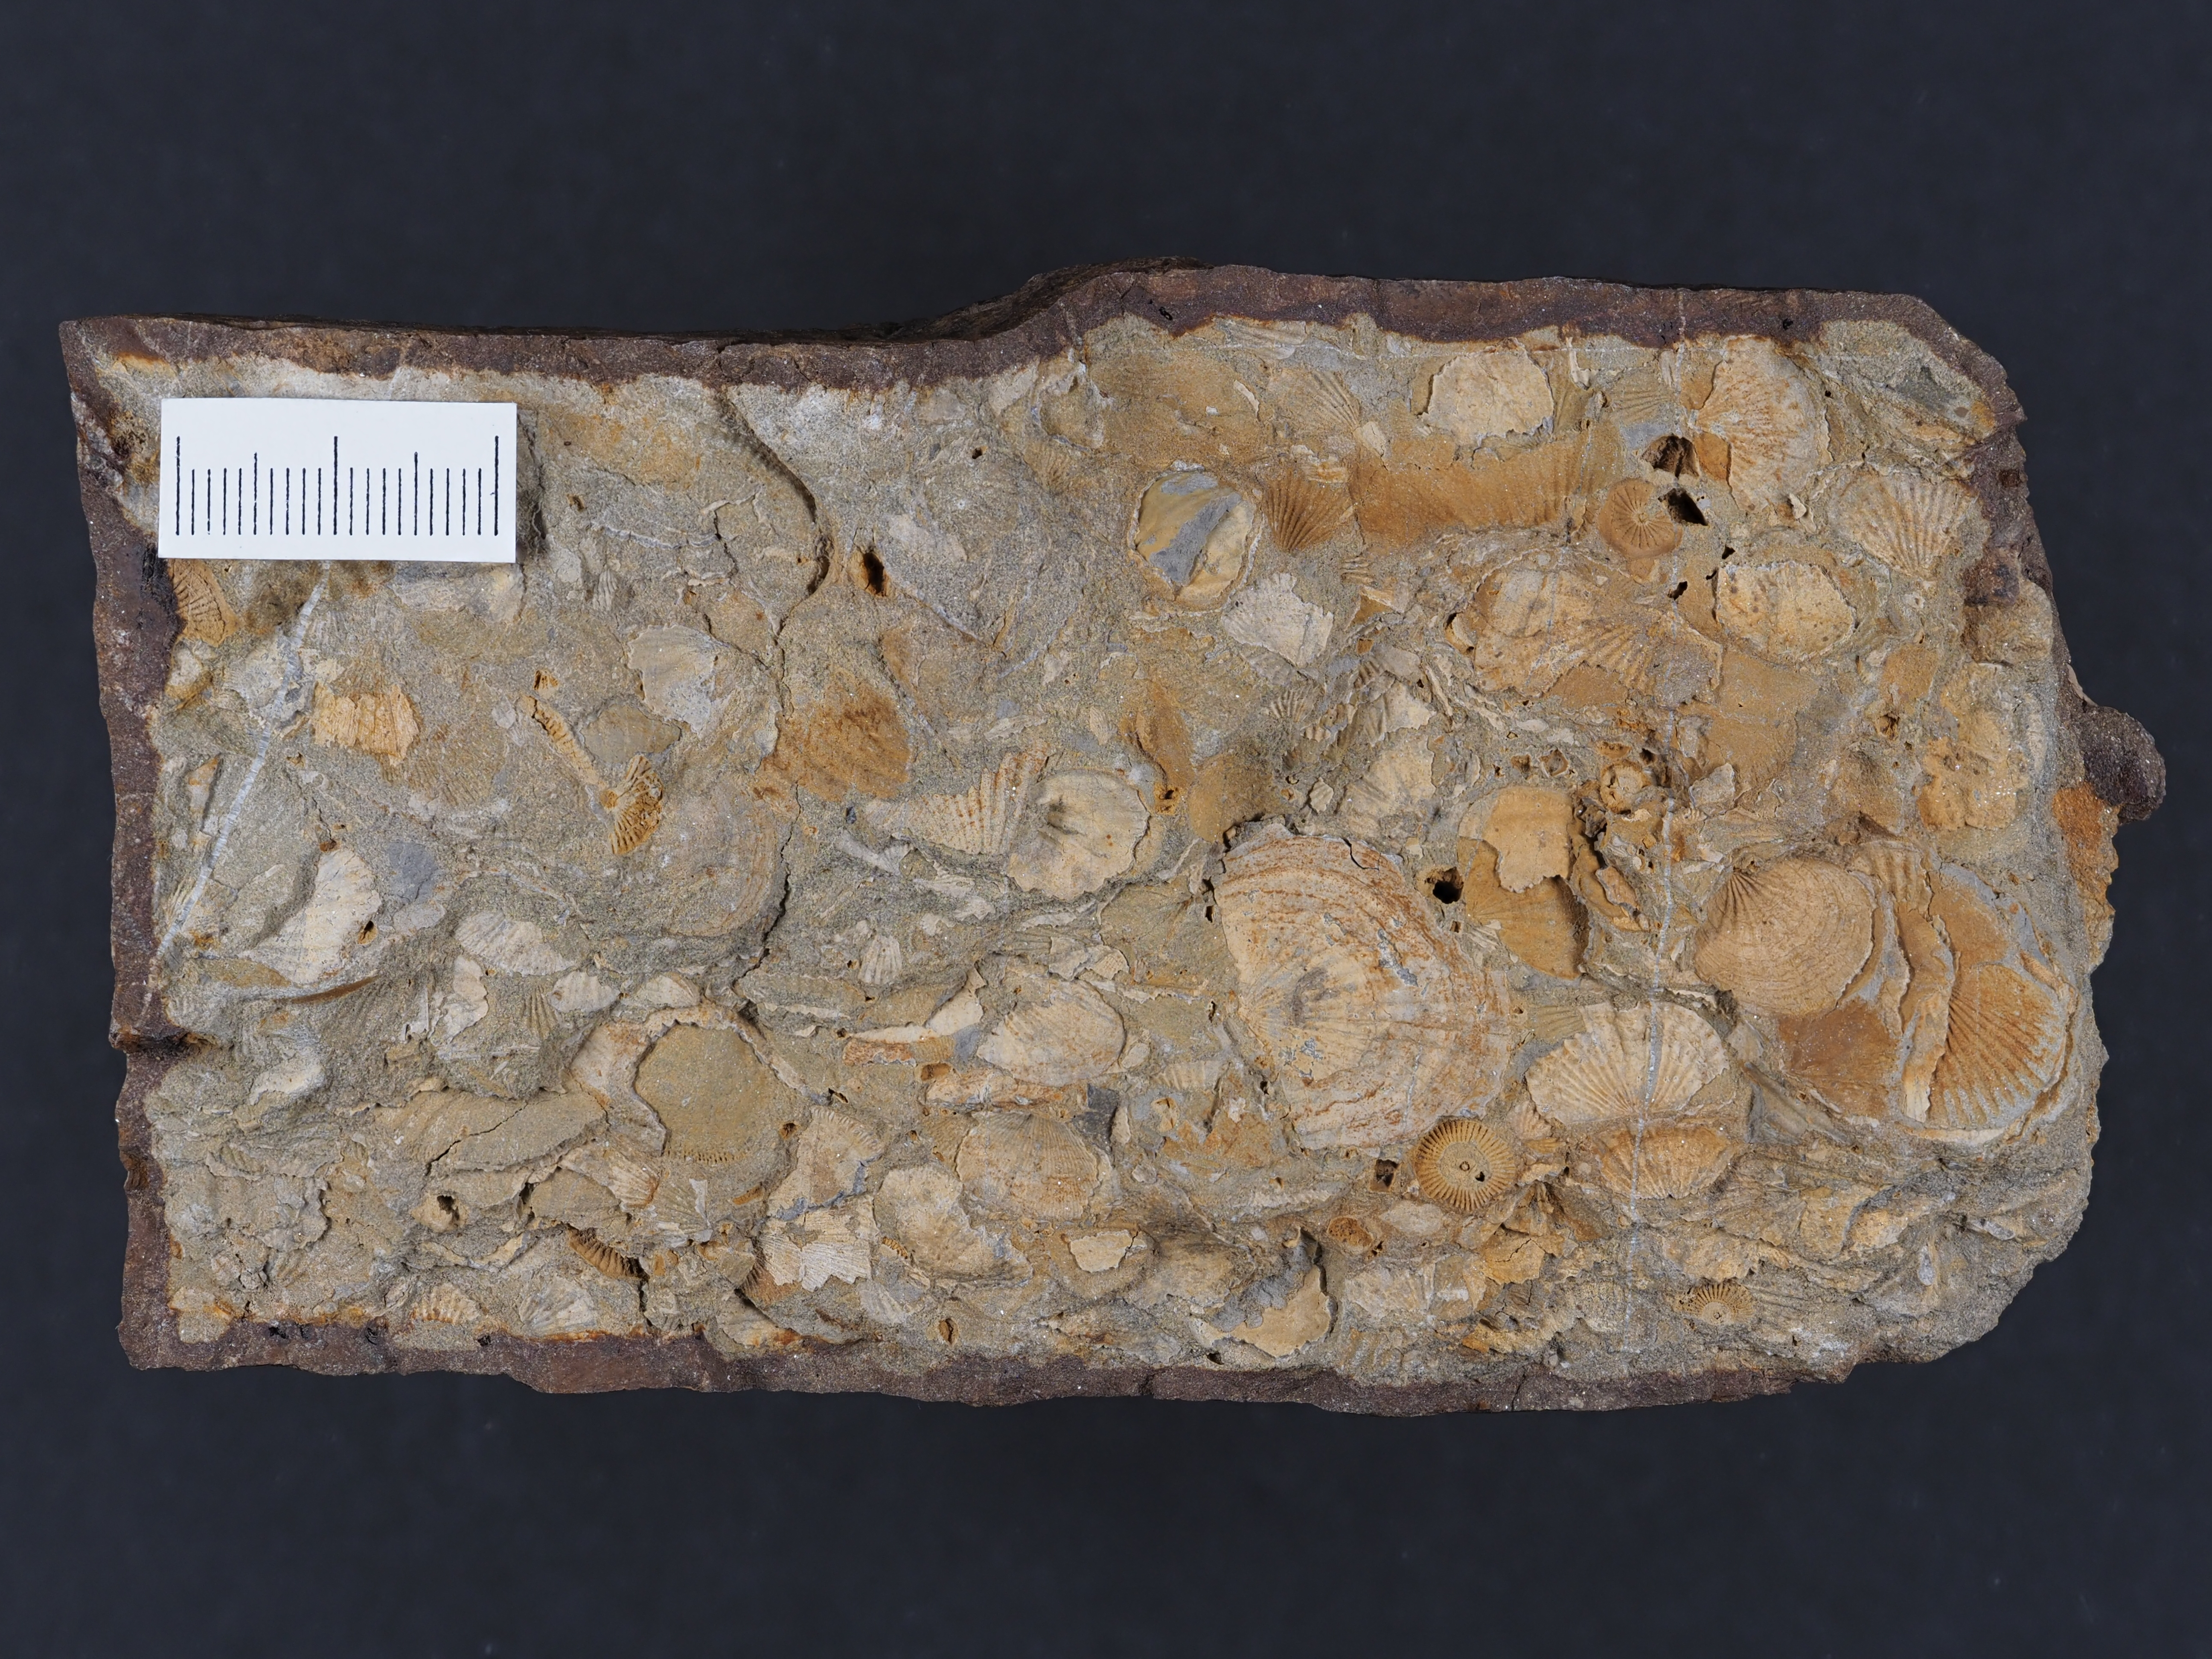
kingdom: Animalia
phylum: Brachiopoda
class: Rhynchonellata
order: Terebratulida
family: Tropidoleptidae
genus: Tropidoleptus
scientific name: Tropidoleptus
